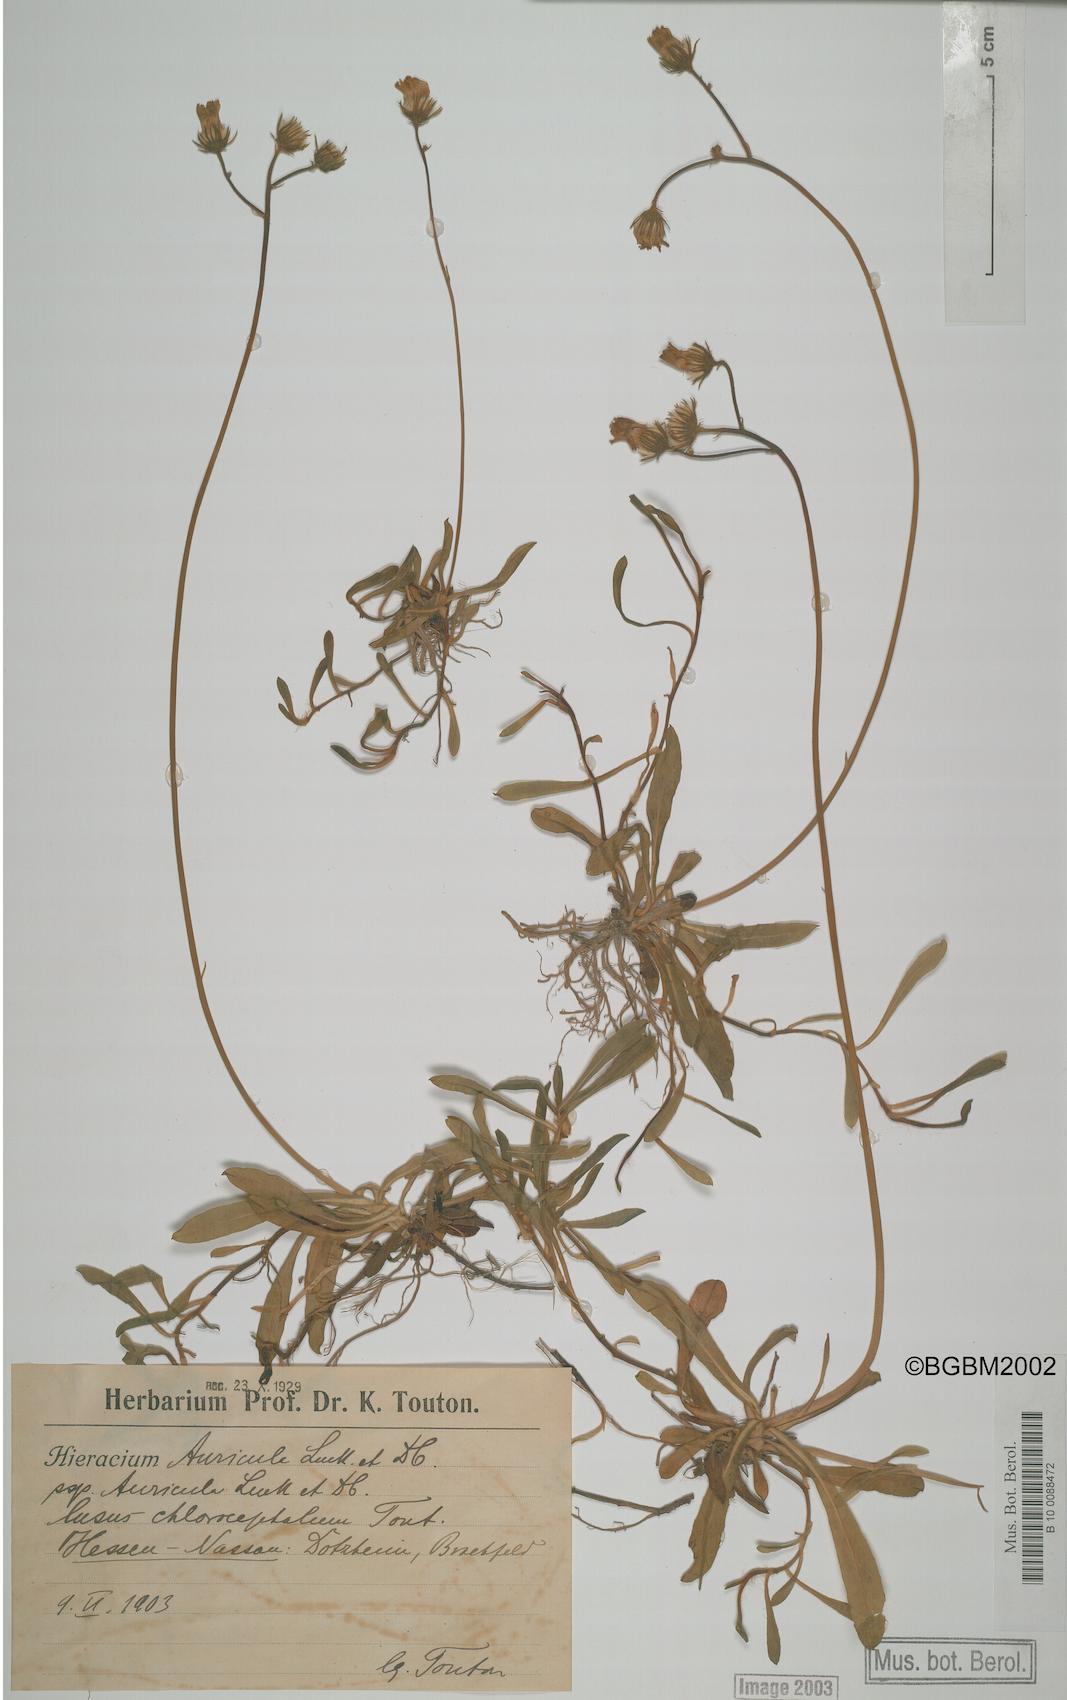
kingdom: Plantae
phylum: Tracheophyta
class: Magnoliopsida
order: Asterales
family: Asteraceae
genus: Pilosella
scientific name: Pilosella lactucella
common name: Glaucous fox-and-cubs
